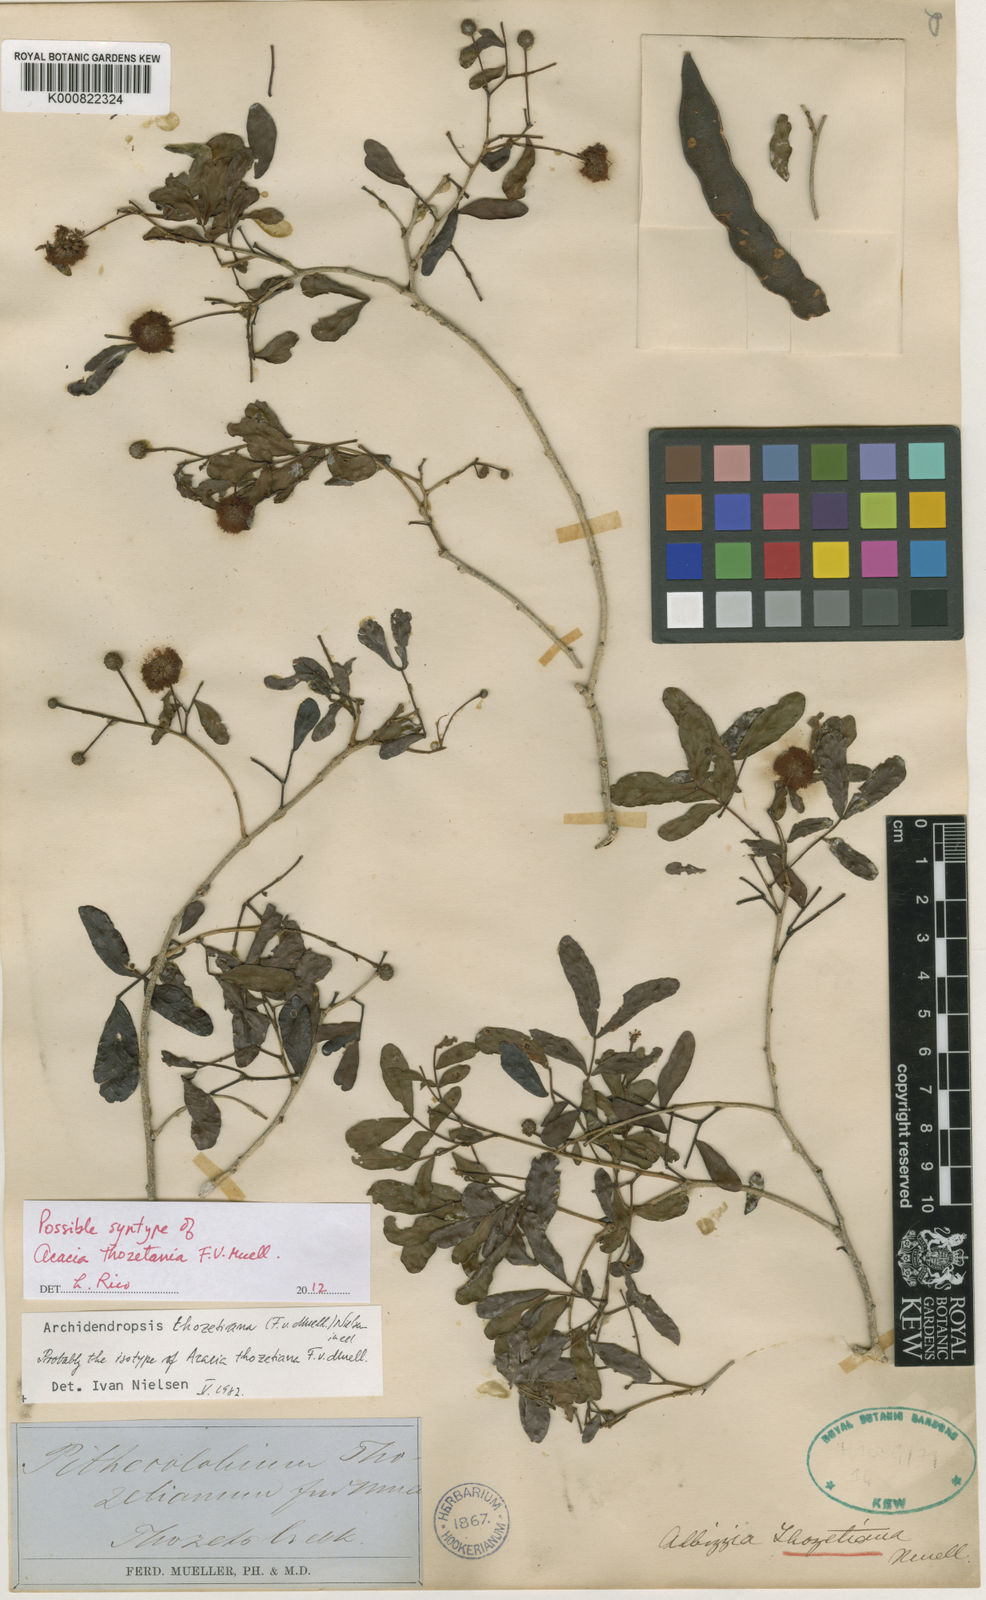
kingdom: Plantae
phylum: Tracheophyta
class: Magnoliopsida
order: Fabales
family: Fabaceae
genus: Archidendropsis
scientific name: Archidendropsis thozetiana
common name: Scrub teatree
